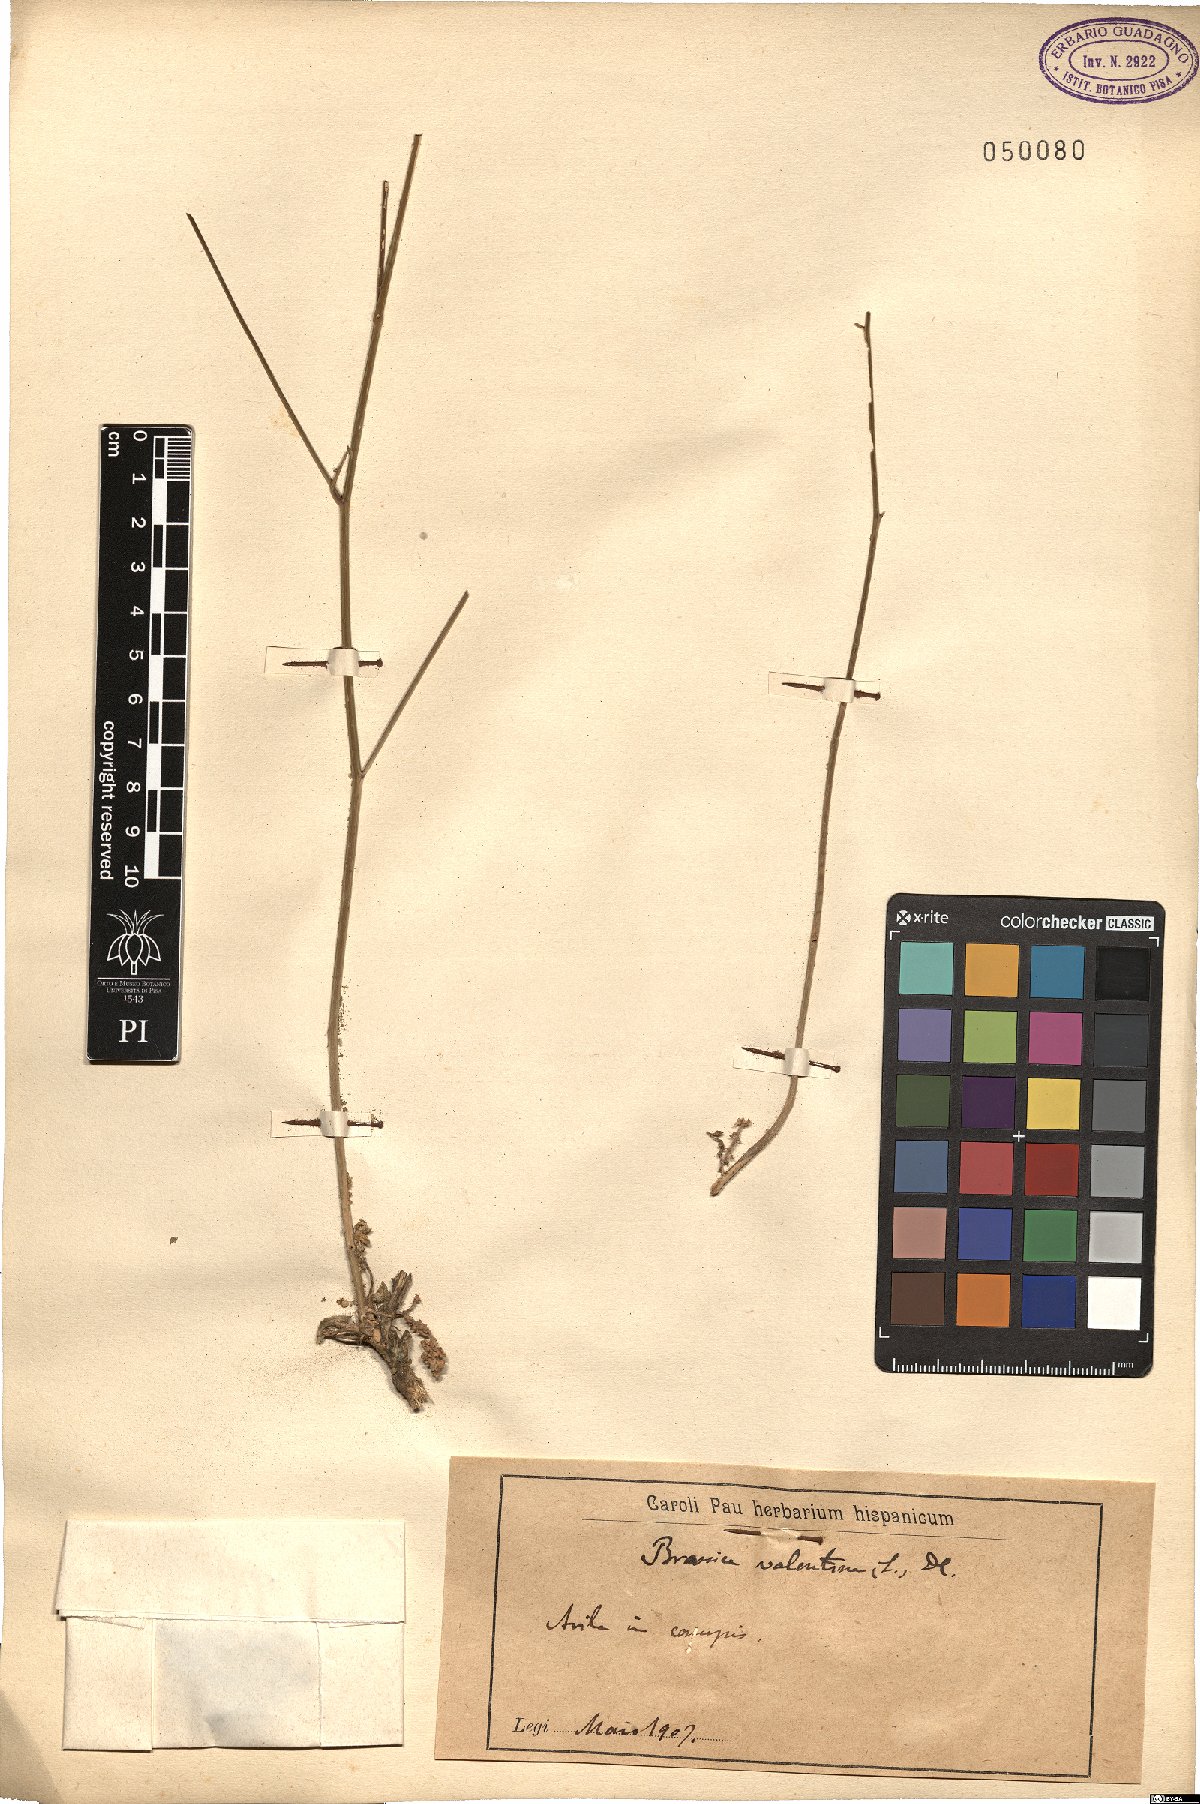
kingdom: Plantae
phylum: Tracheophyta
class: Magnoliopsida
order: Brassicales
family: Brassicaceae
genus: Biscutella
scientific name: Biscutella valentina
